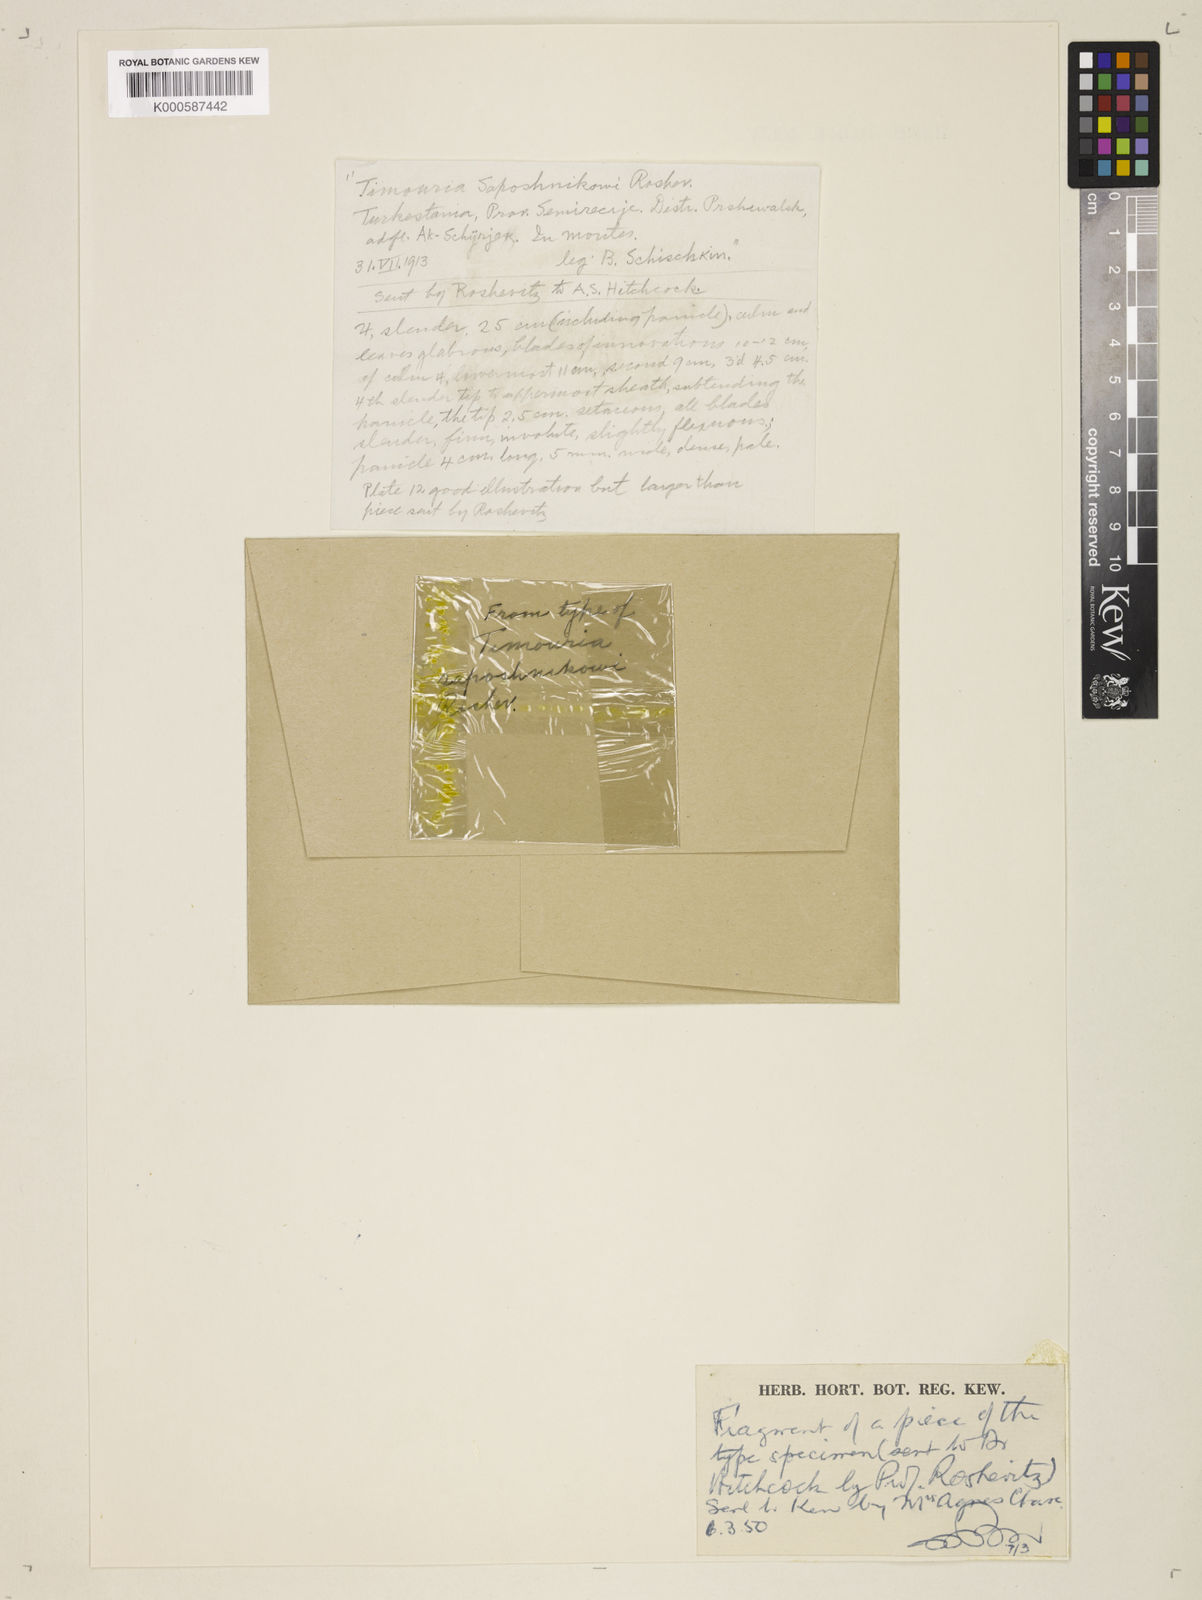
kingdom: Plantae
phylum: Tracheophyta
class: Liliopsida
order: Poales
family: Poaceae
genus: Timouria
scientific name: Timouria saposhnikowii
